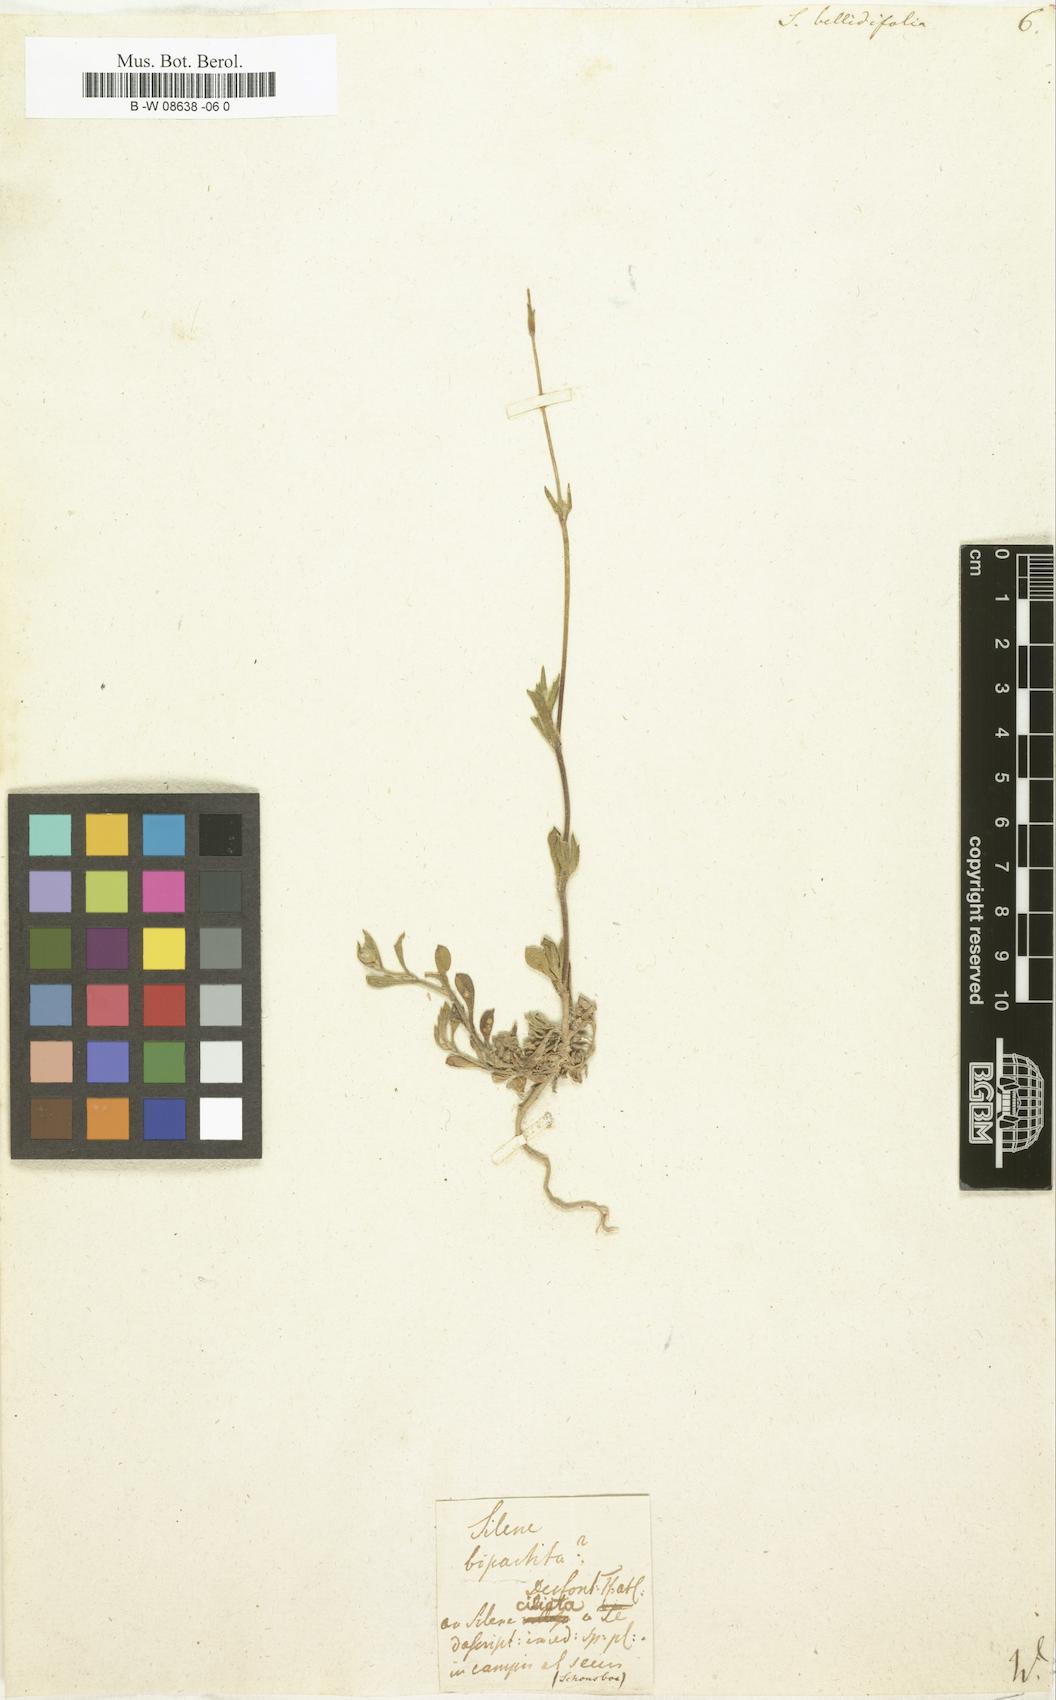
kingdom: Plantae
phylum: Tracheophyta
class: Magnoliopsida
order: Caryophyllales
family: Caryophyllaceae
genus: Silene
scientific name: Silene bellidifolia
